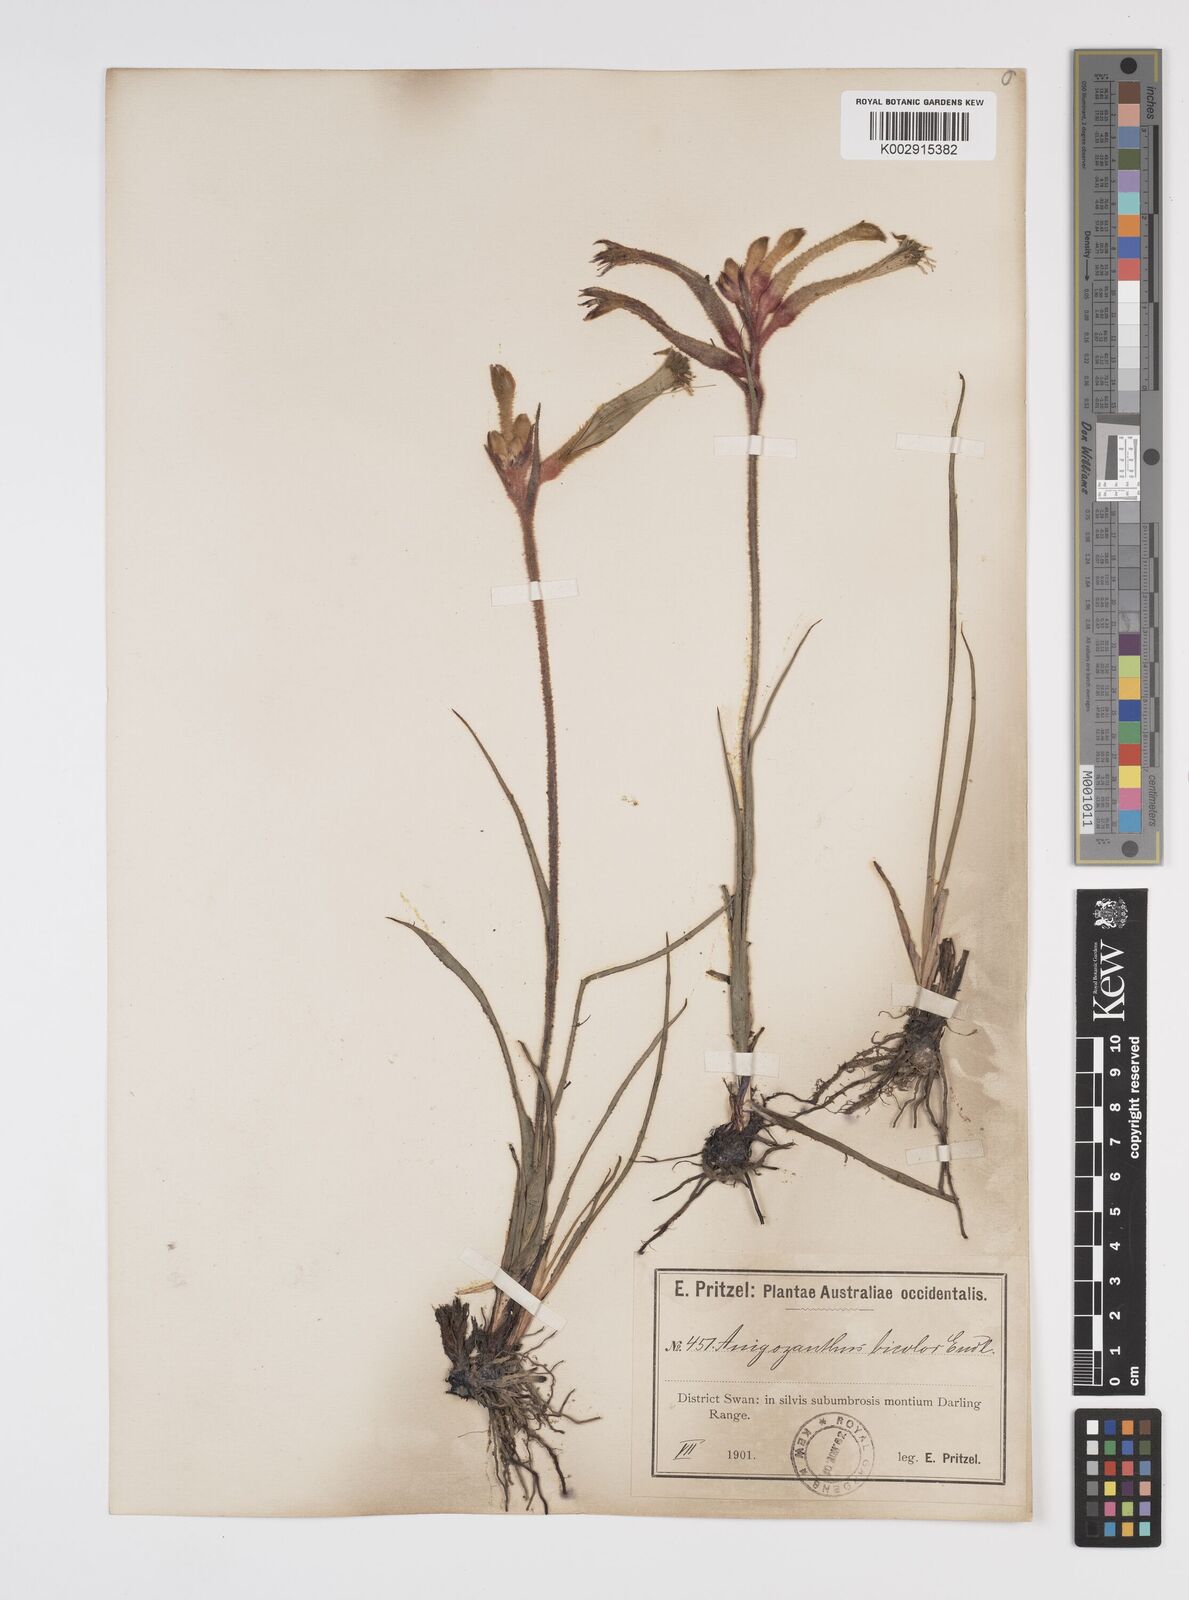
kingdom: Plantae
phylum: Tracheophyta
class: Liliopsida
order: Commelinales
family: Haemodoraceae
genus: Anigozanthos
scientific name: Anigozanthos bicolor
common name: Little kangaroo-paw
